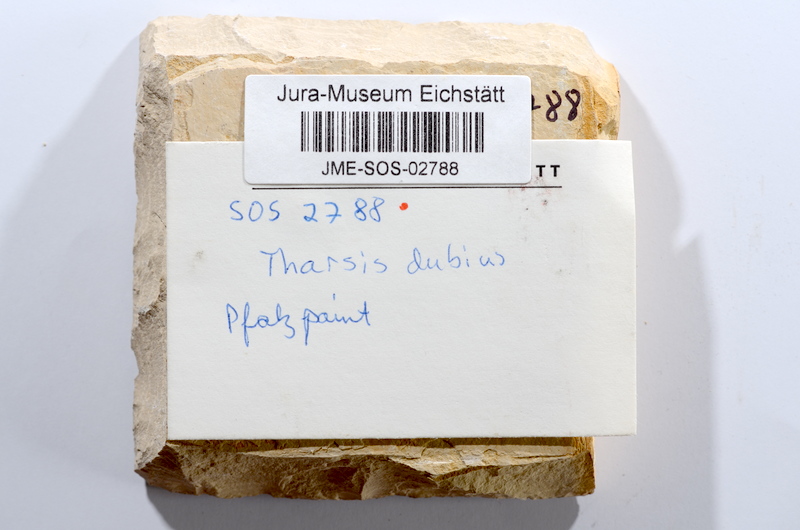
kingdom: Animalia
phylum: Chordata
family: Ascalaboidae
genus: Tharsis
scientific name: Tharsis dubius
